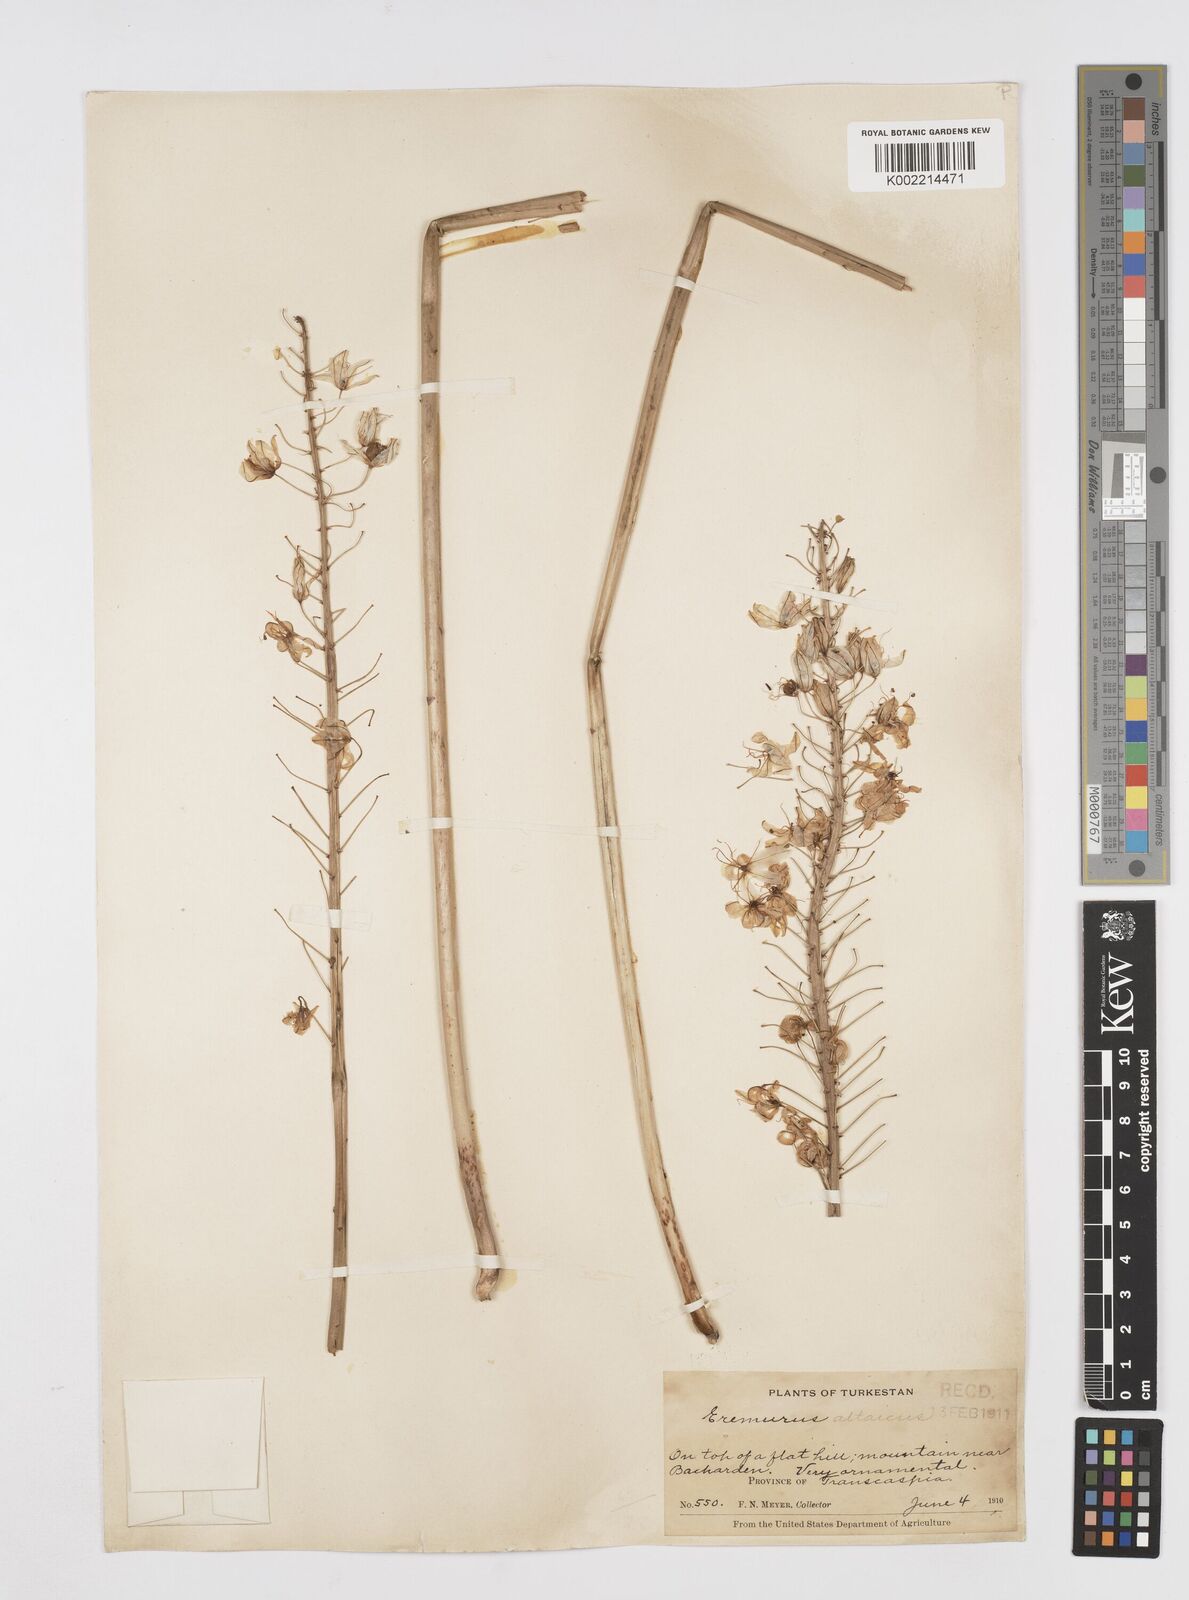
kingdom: Plantae
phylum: Tracheophyta
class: Liliopsida
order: Asparagales
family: Asphodelaceae
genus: Eremurus
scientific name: Eremurus altaicus
